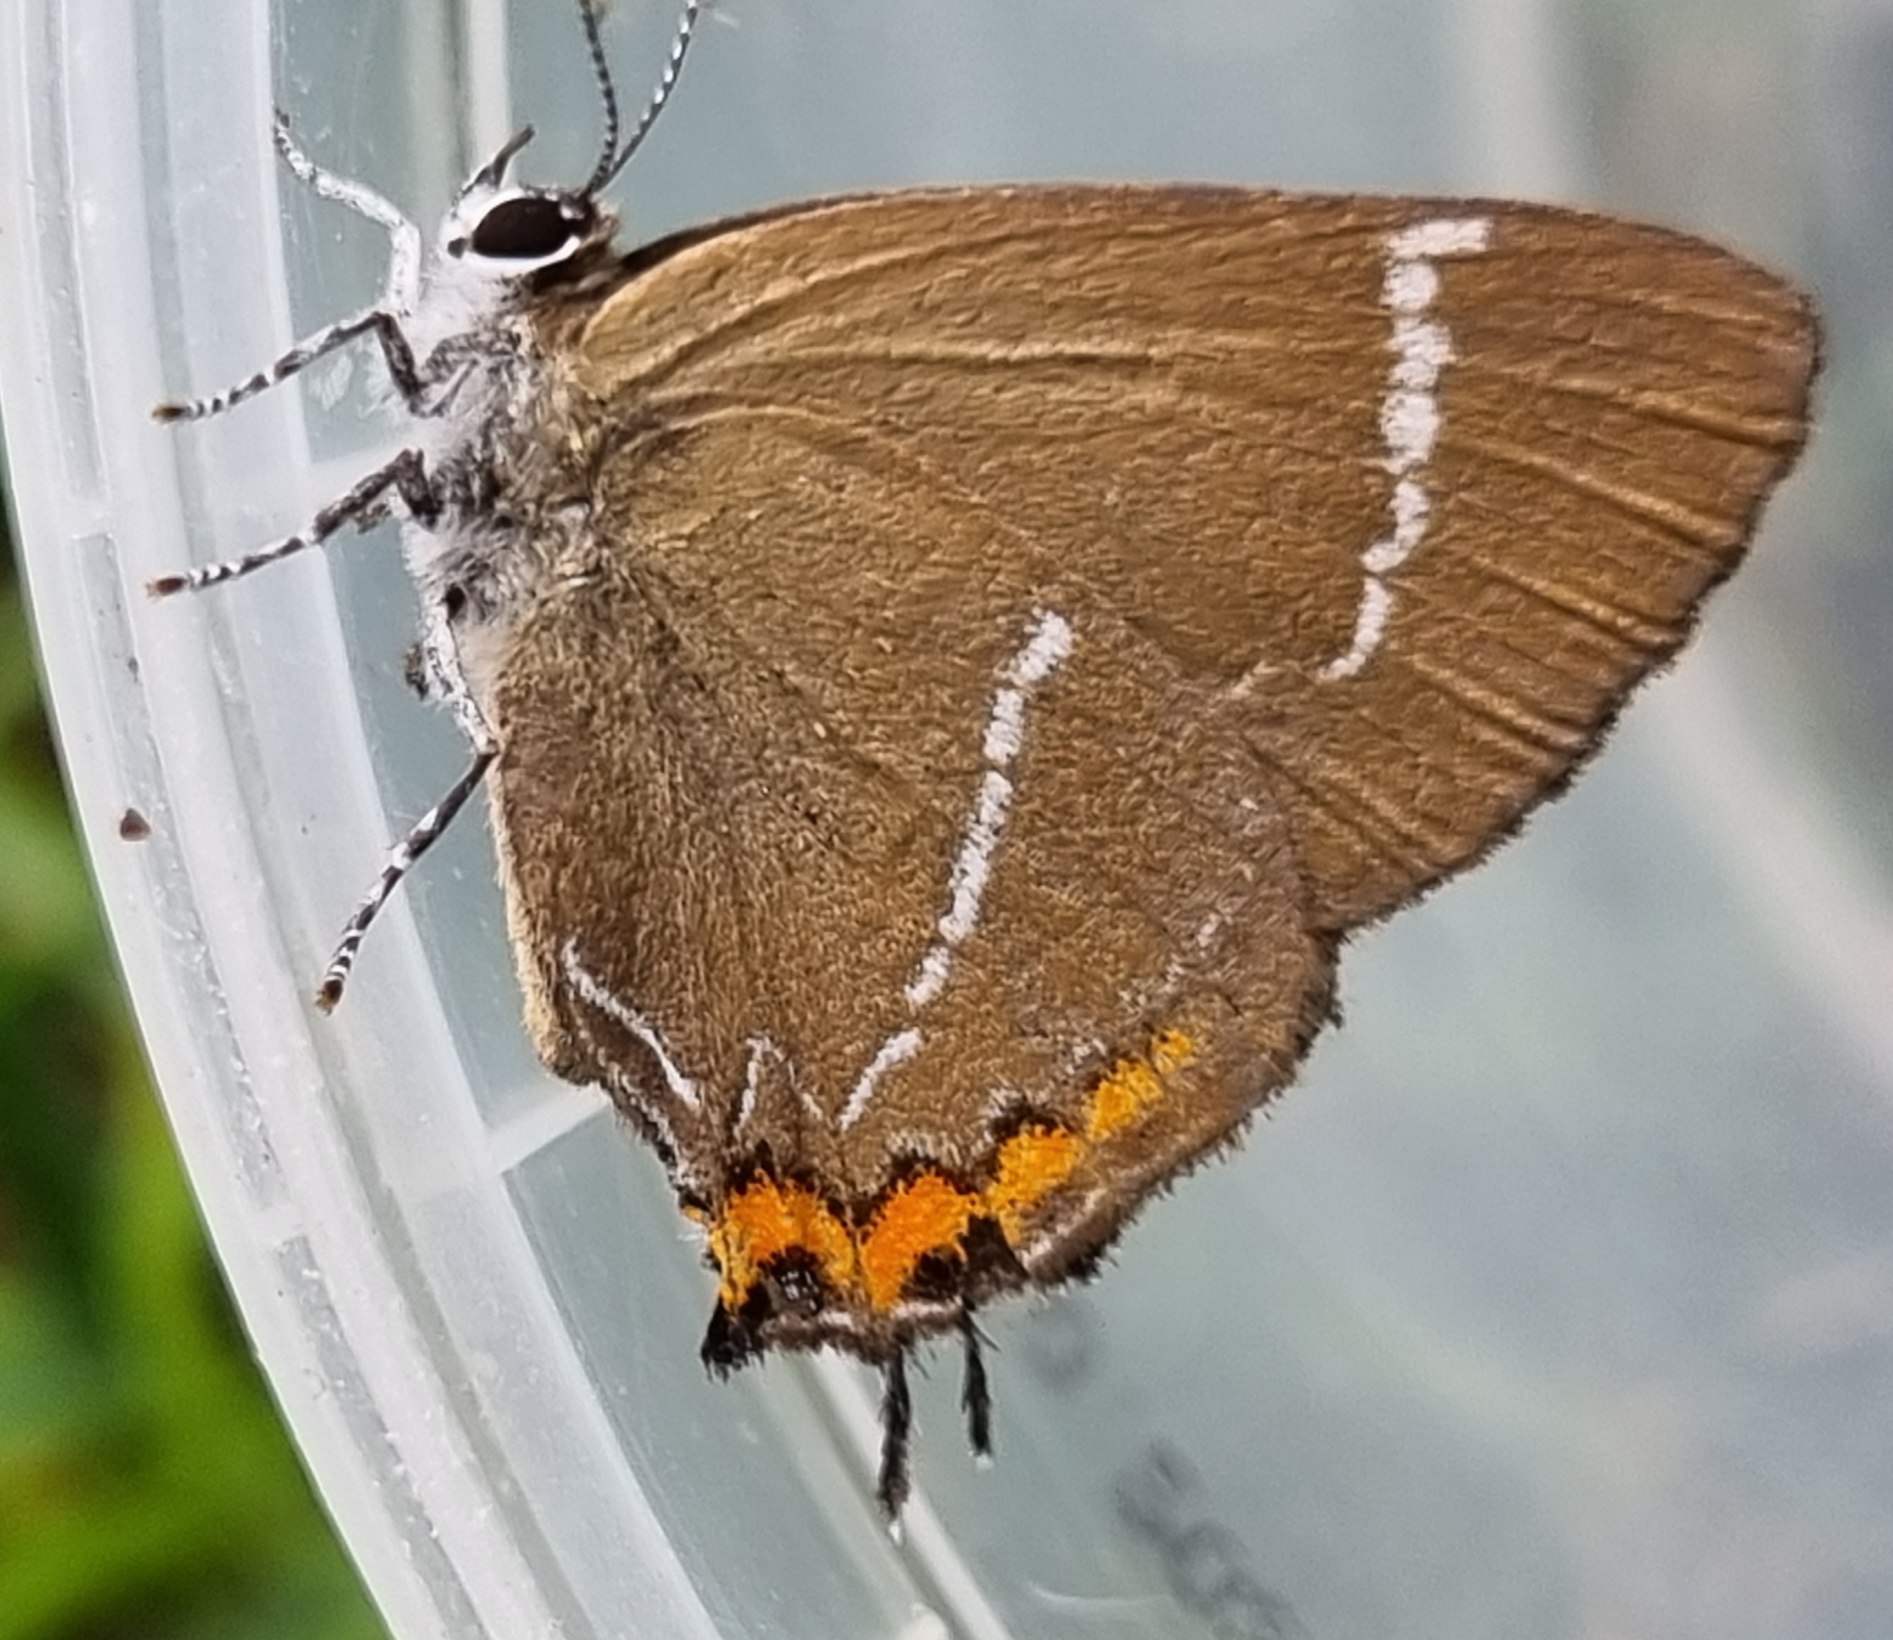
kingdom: Animalia
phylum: Arthropoda
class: Insecta
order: Lepidoptera
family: Lycaenidae
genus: Satyrium
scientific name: Satyrium w-album
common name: Det hvide W
